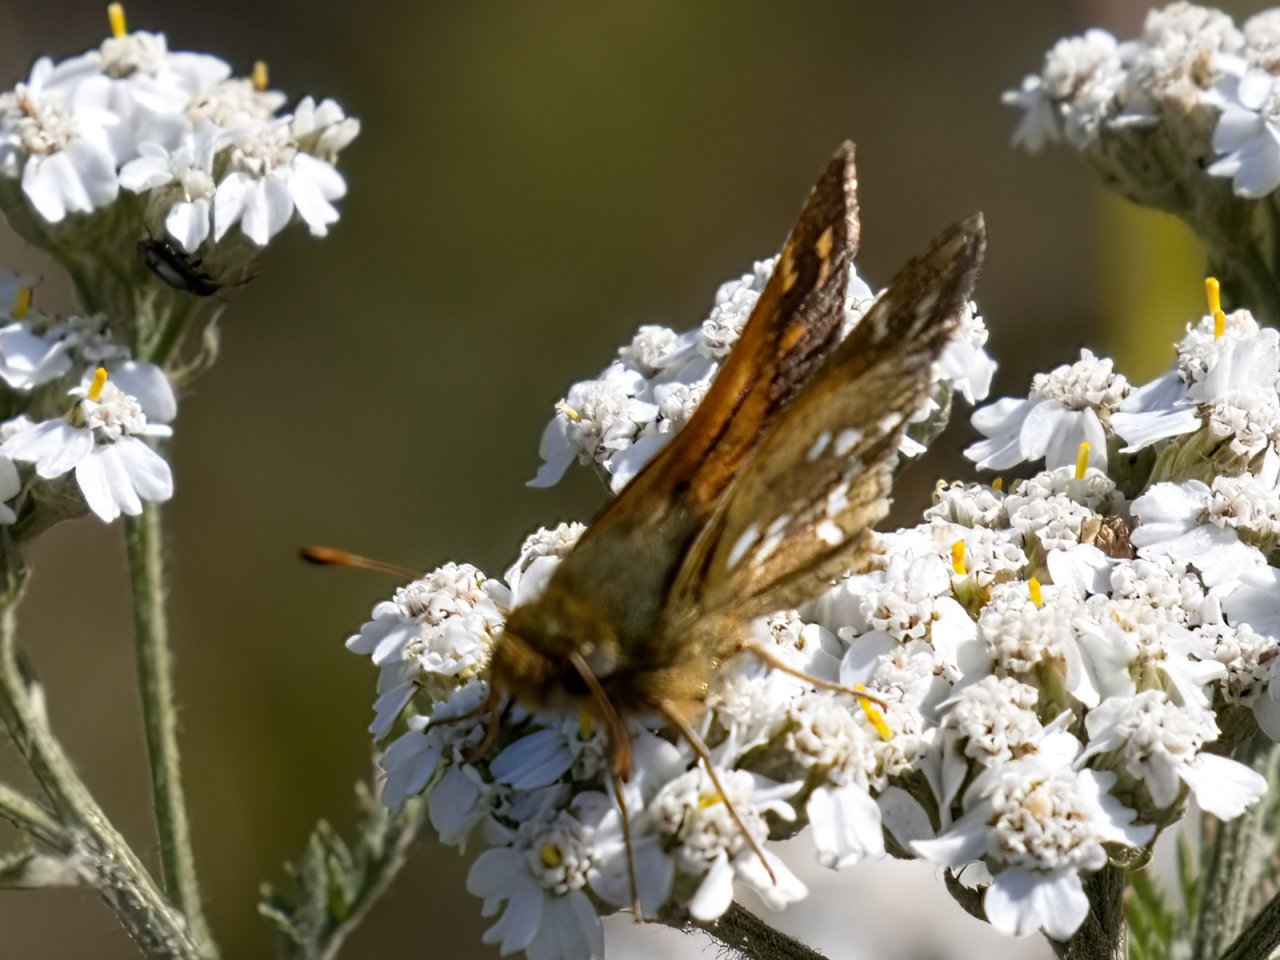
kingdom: Animalia
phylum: Arthropoda
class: Insecta
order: Lepidoptera
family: Hesperiidae
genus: Hesperia
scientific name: Hesperia comma
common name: Common Branded Skipper
